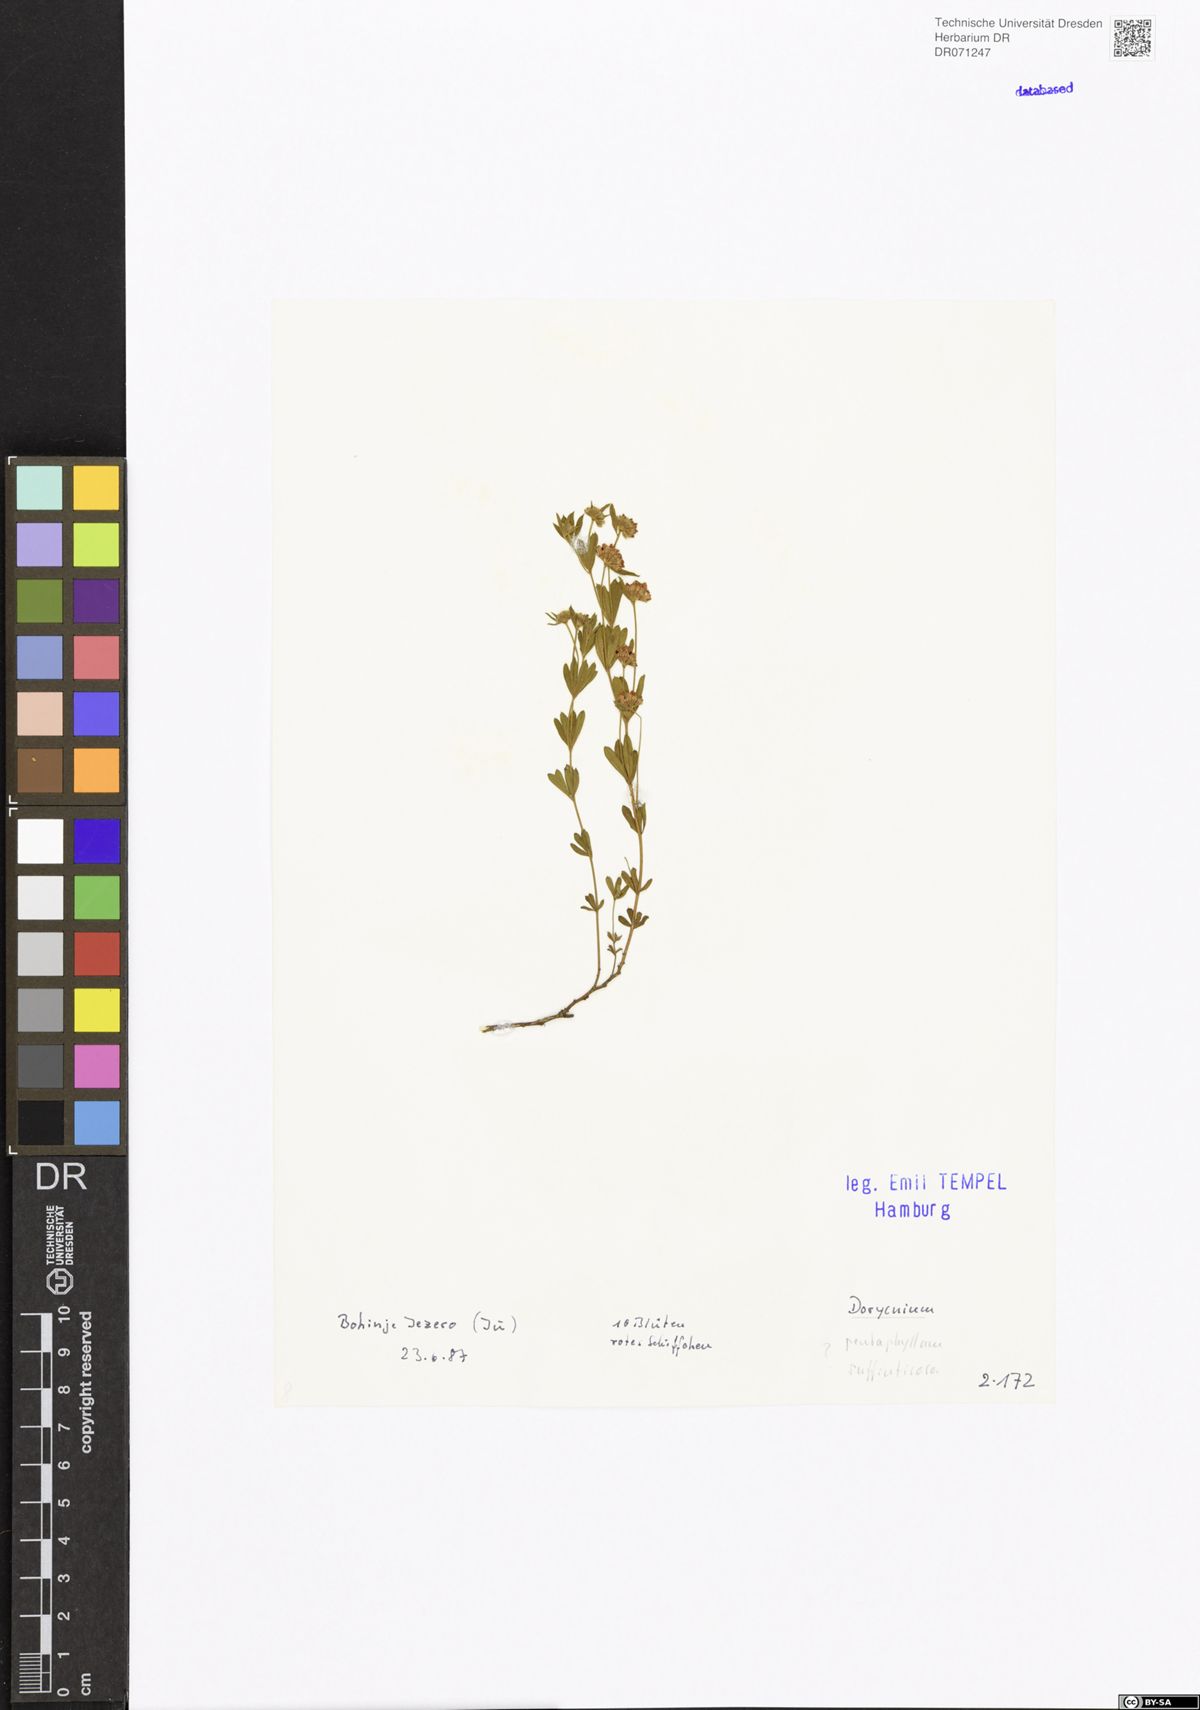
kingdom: Plantae
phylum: Tracheophyta
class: Magnoliopsida
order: Fabales
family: Fabaceae
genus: Lotus
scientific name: Lotus dorycnium
